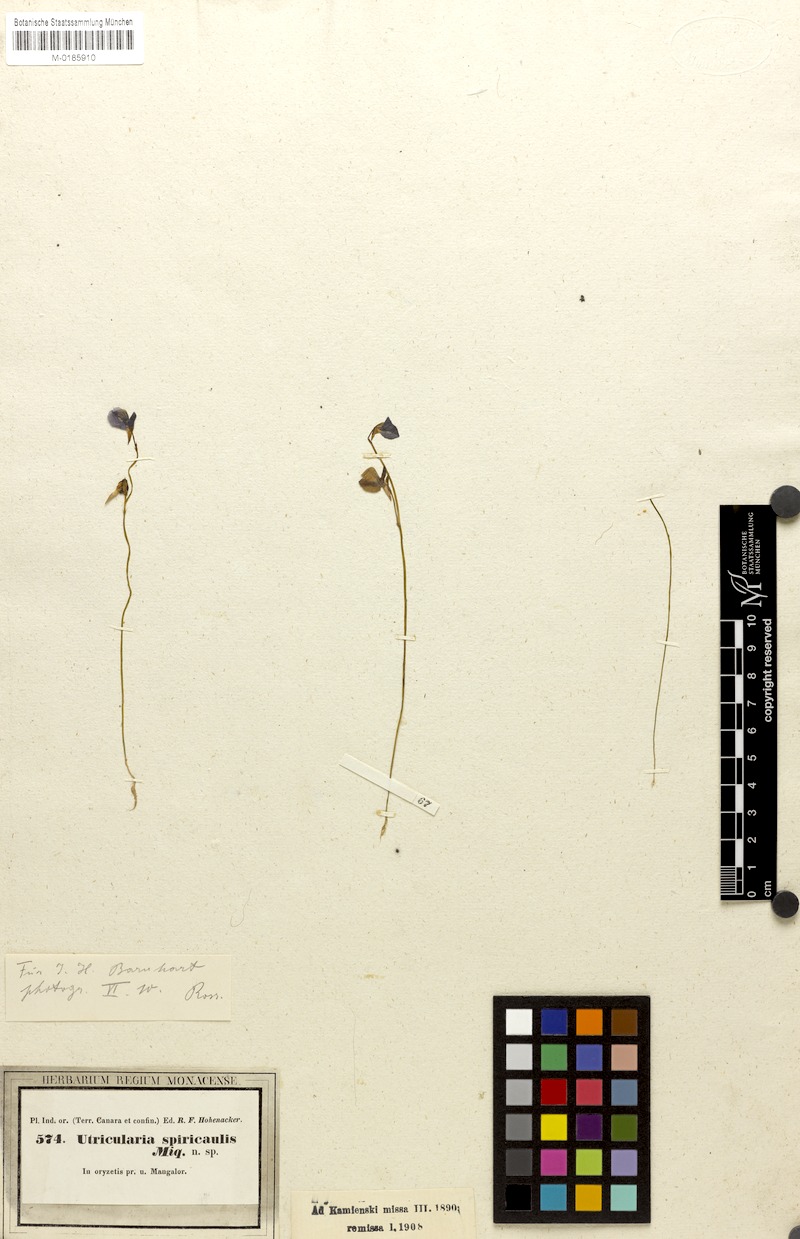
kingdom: Plantae
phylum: Tracheophyta
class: Magnoliopsida
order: Lamiales
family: Lentibulariaceae
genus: Utricularia
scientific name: Utricularia reticulata
